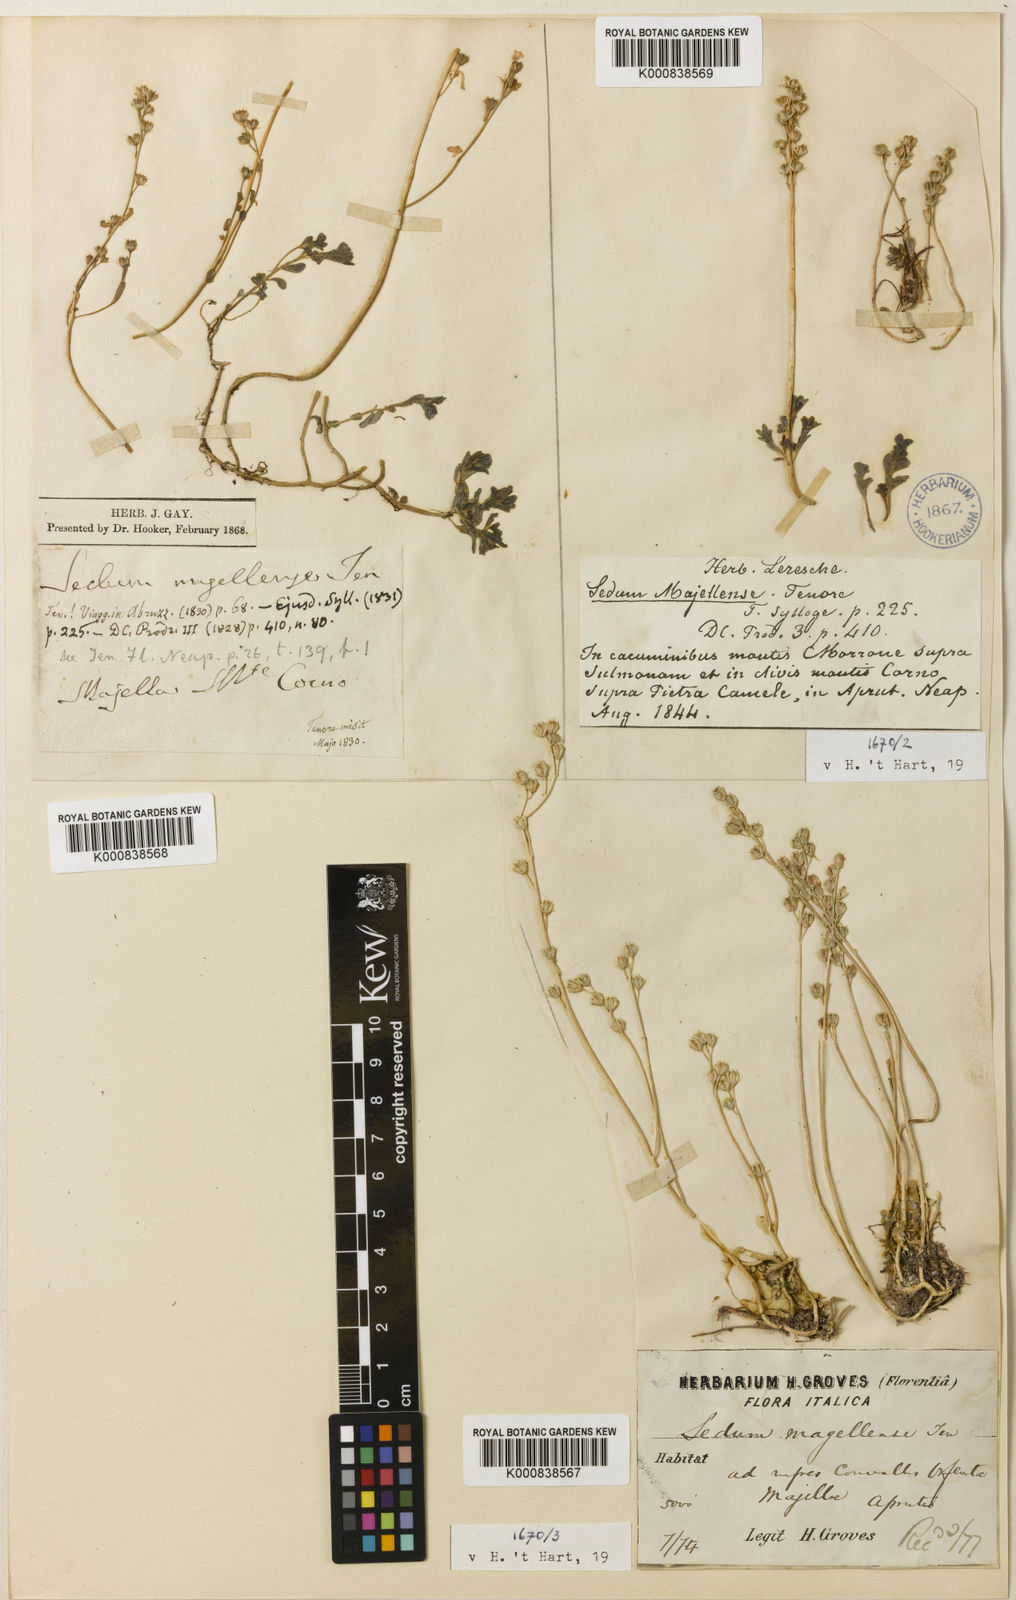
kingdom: Plantae
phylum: Tracheophyta
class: Magnoliopsida
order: Saxifragales
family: Crassulaceae
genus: Sedum
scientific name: Sedum magellense
